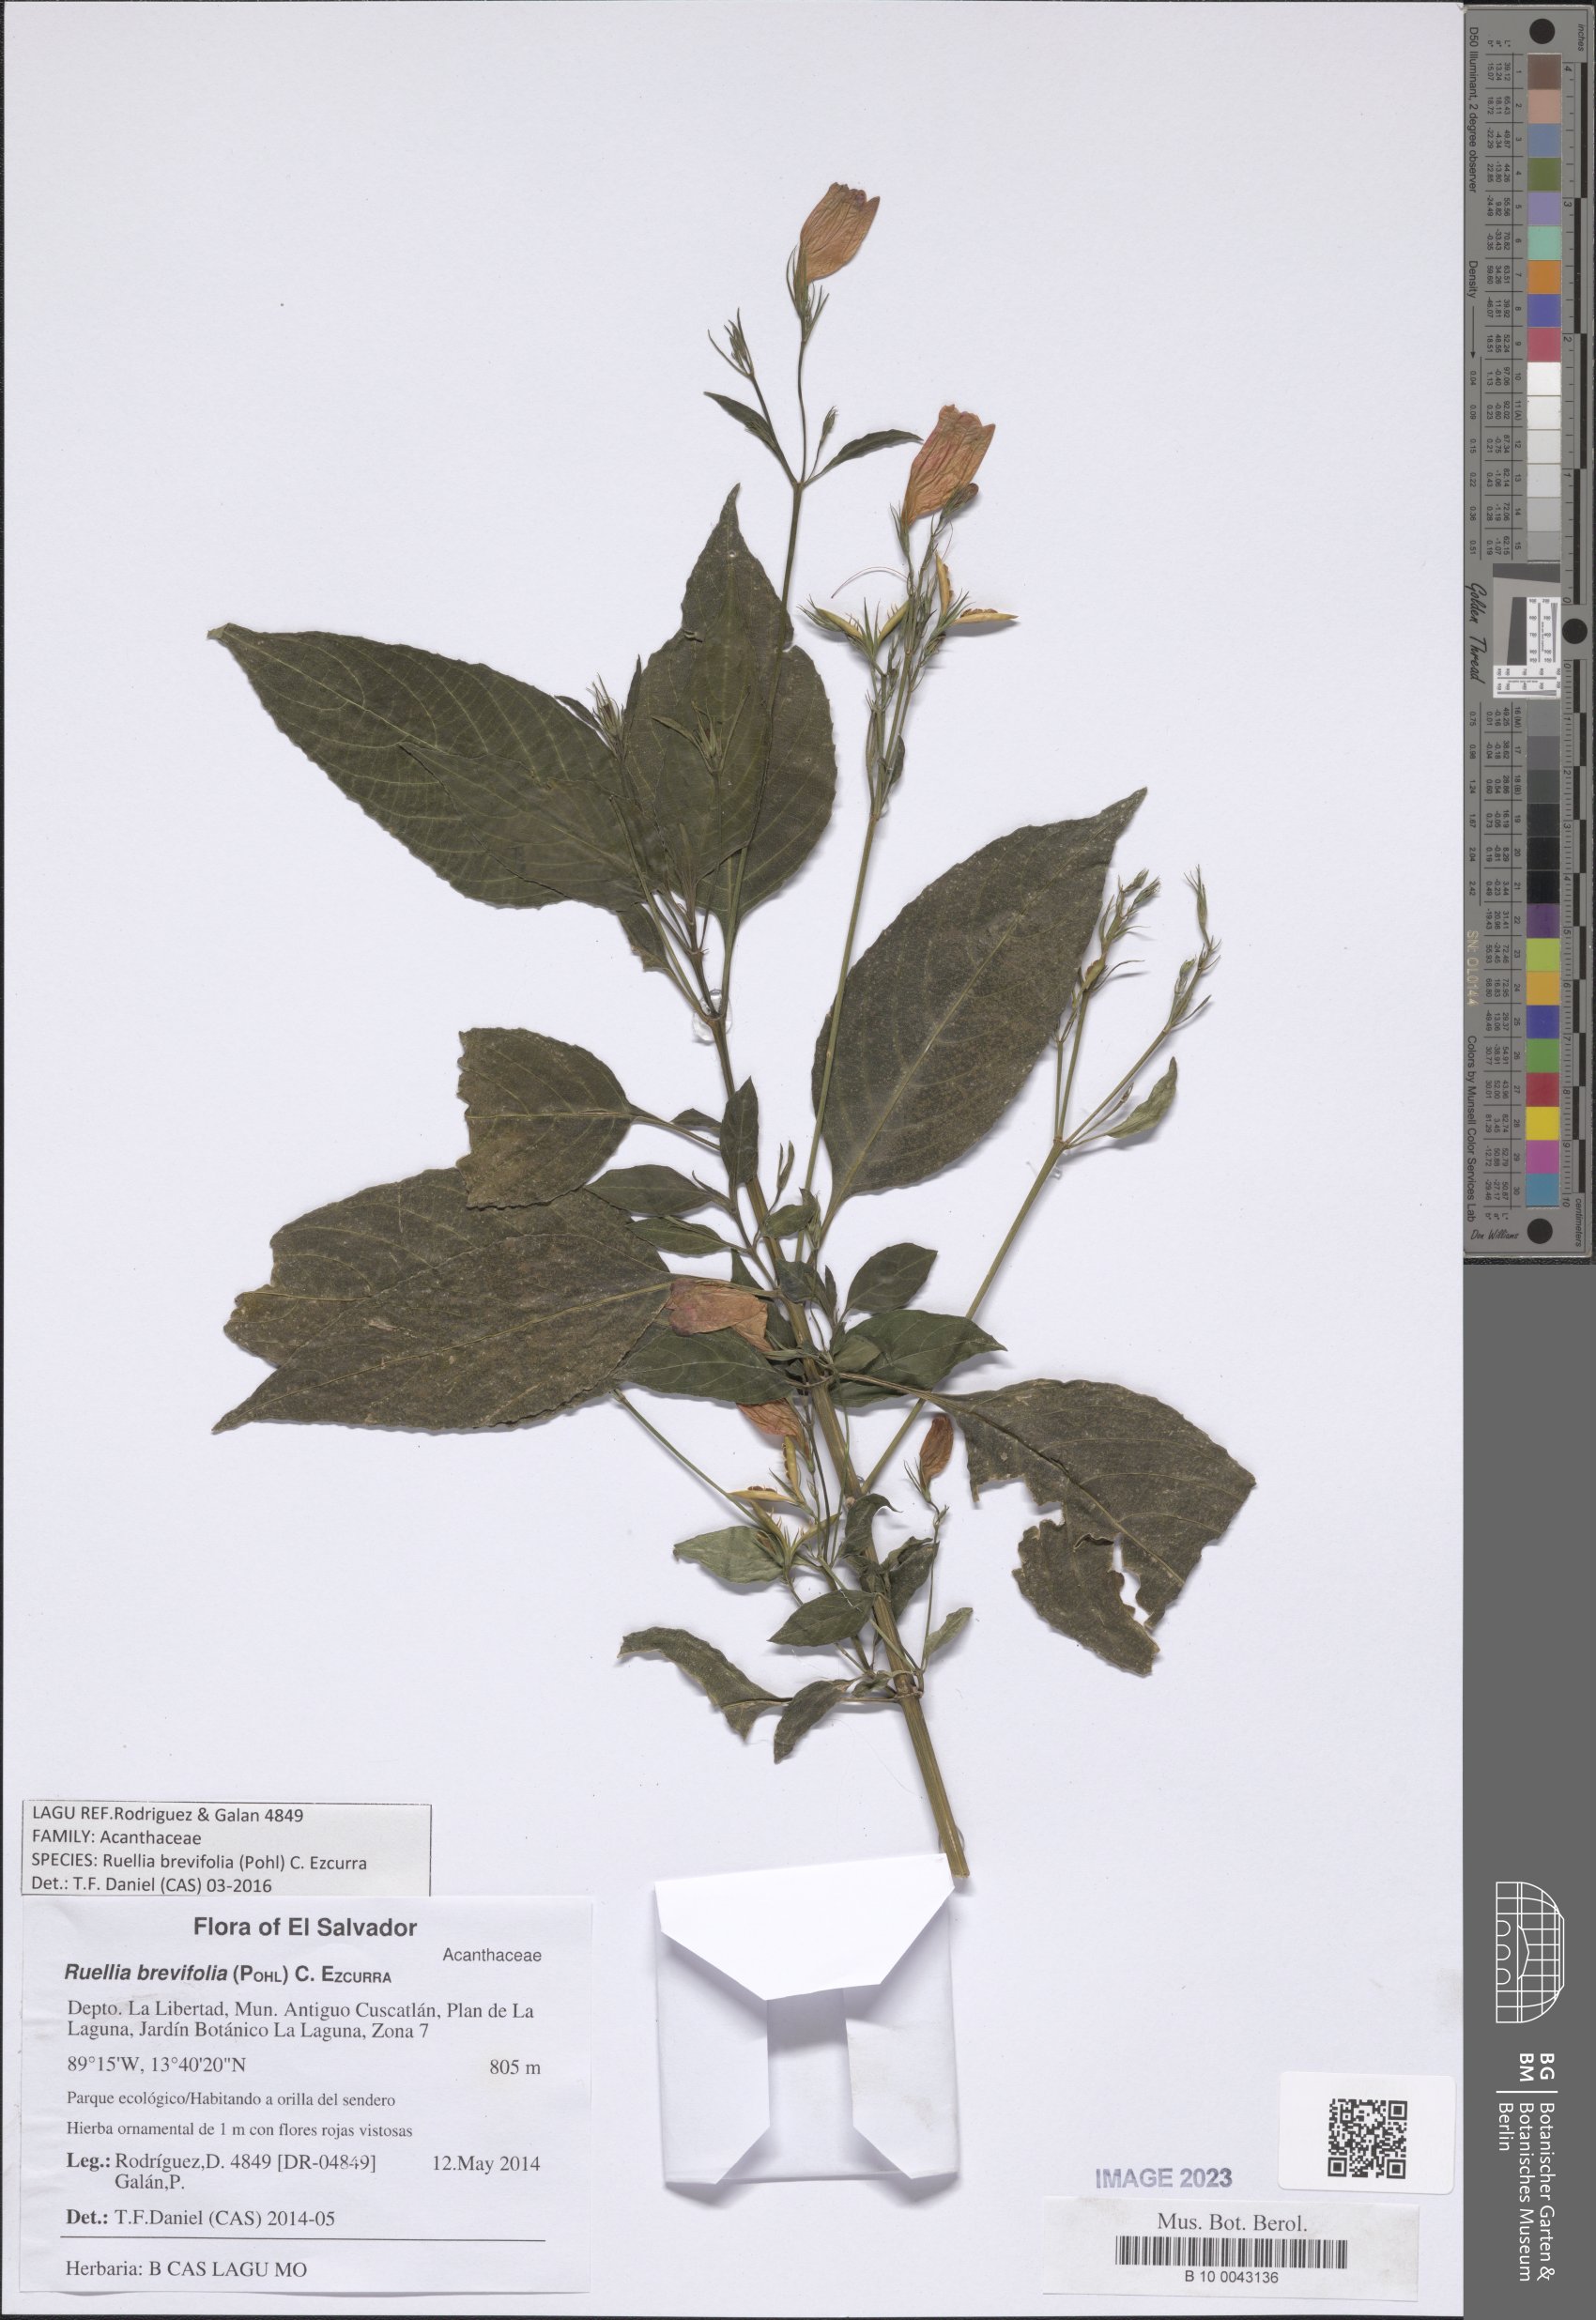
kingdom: Plantae
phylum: Tracheophyta
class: Magnoliopsida
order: Lamiales
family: Acanthaceae
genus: Ruellia
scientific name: Ruellia brevifolia
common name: Tropical wild petunia
